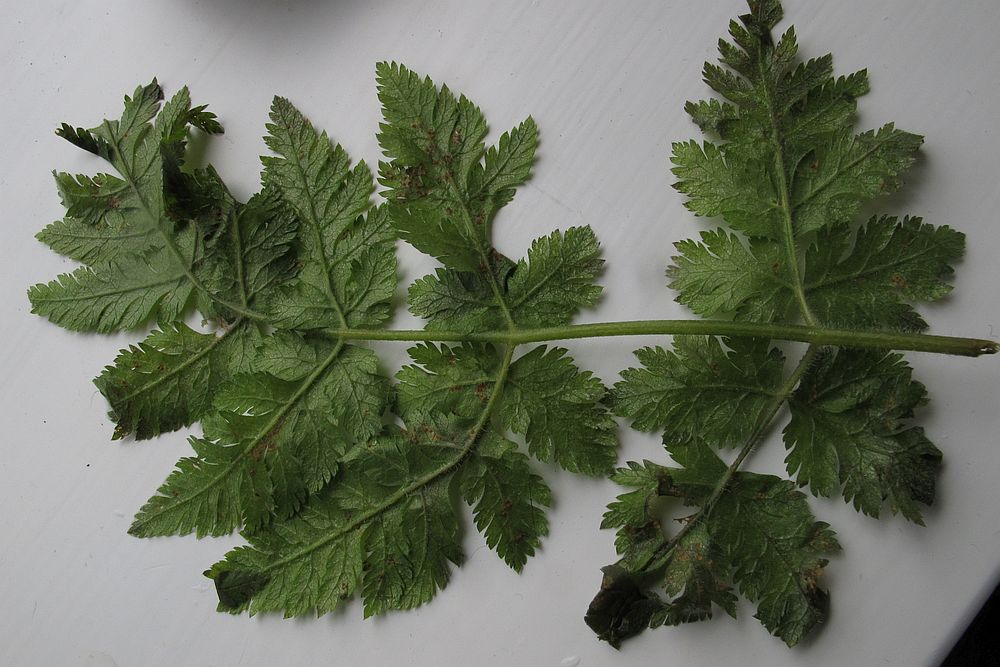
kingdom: Fungi
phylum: Basidiomycota
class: Pucciniomycetes
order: Pucciniales
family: Pucciniaceae
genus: Puccinia
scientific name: Puccinia chaerophylli
